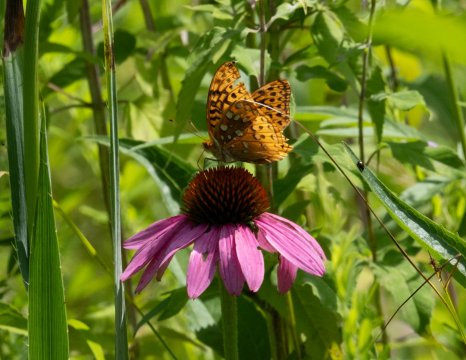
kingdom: Animalia
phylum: Arthropoda
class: Insecta
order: Lepidoptera
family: Nymphalidae
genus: Speyeria
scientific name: Speyeria cybele
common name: Great Spangled Fritillary
